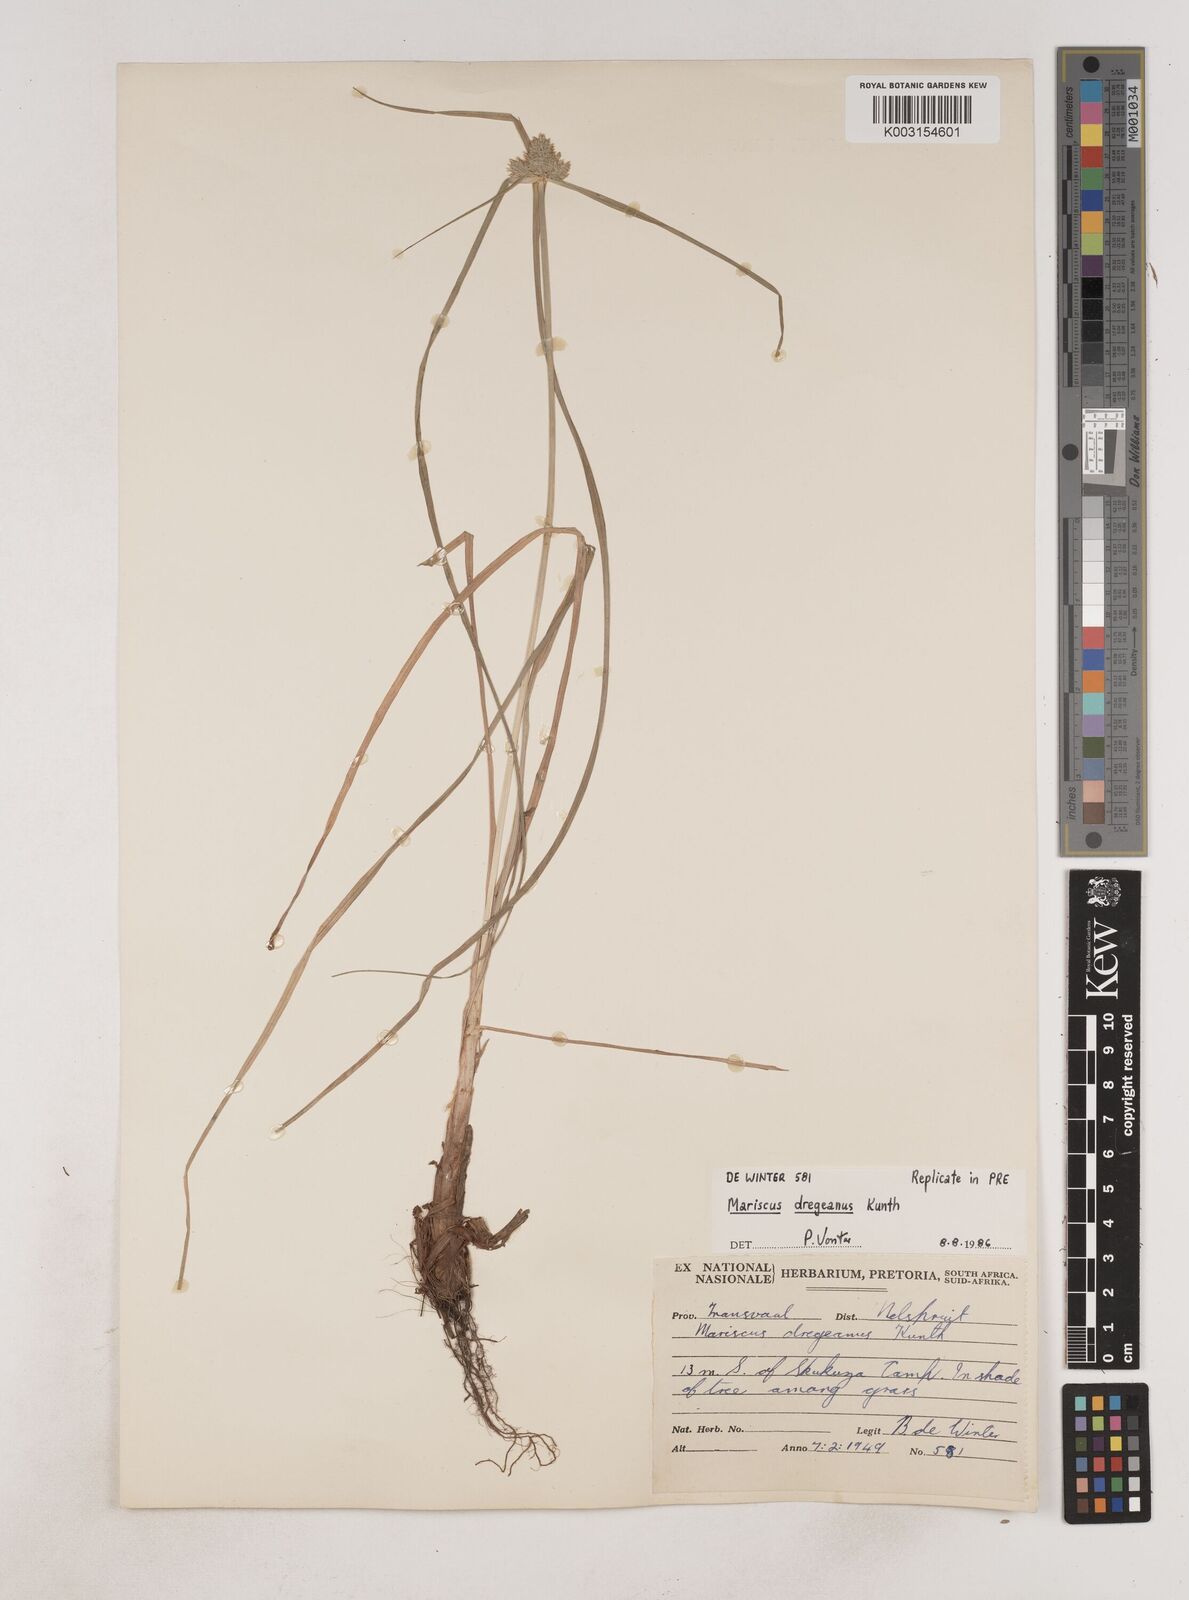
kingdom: Plantae
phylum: Tracheophyta
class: Liliopsida
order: Poales
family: Cyperaceae
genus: Cyperus
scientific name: Cyperus dubius
